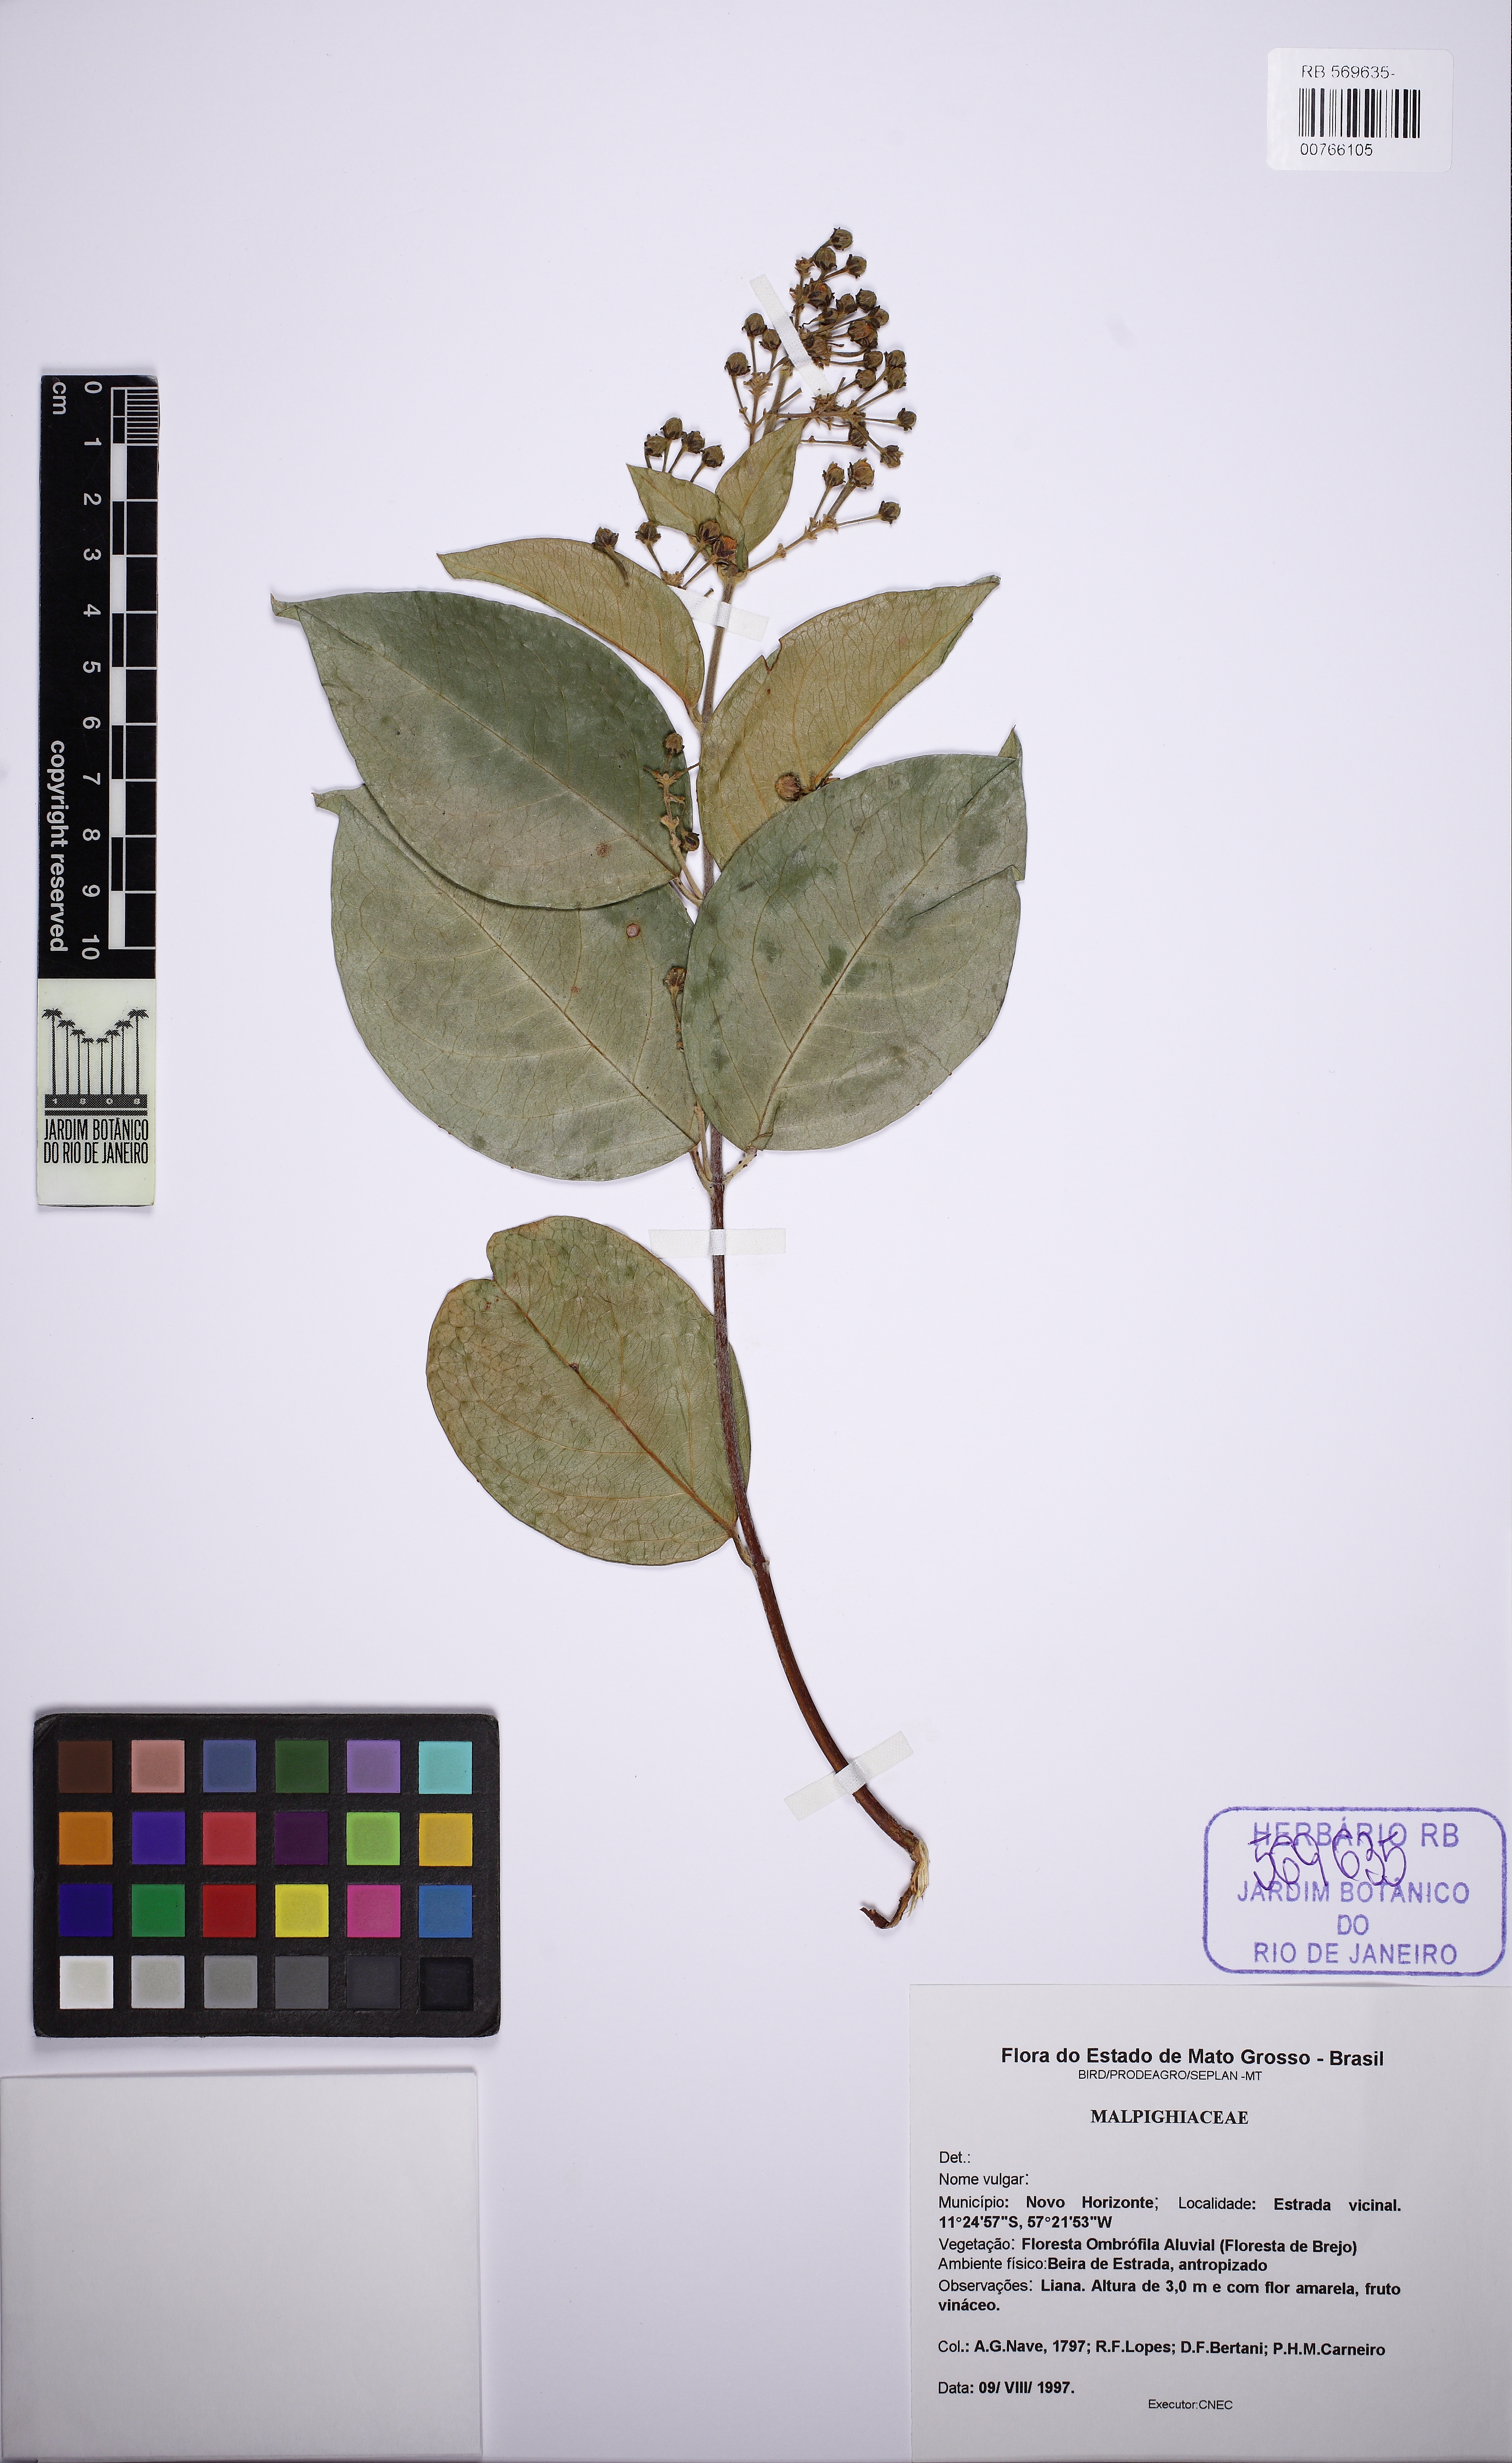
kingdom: Plantae
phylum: Tracheophyta
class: Magnoliopsida
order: Malpighiales
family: Malpighiaceae
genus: Niedenzuella
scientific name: Niedenzuella
